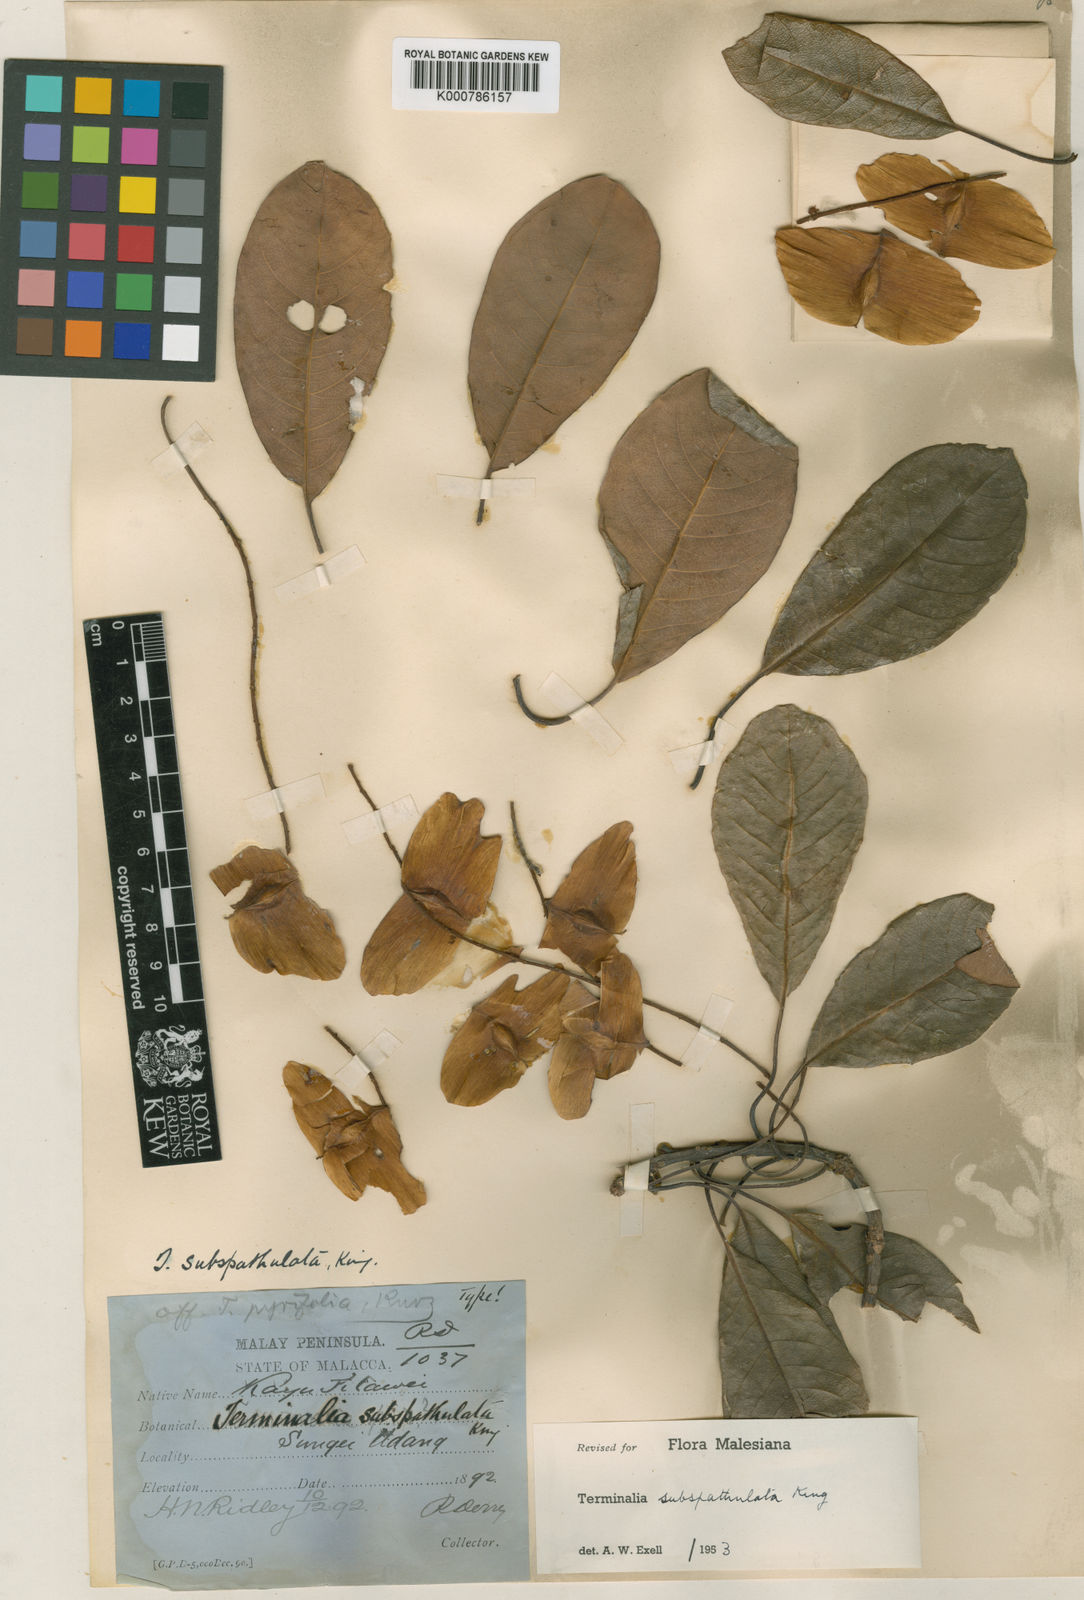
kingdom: Plantae
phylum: Tracheophyta
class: Magnoliopsida
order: Myrtales
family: Combretaceae
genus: Terminalia
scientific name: Terminalia subspathulata
